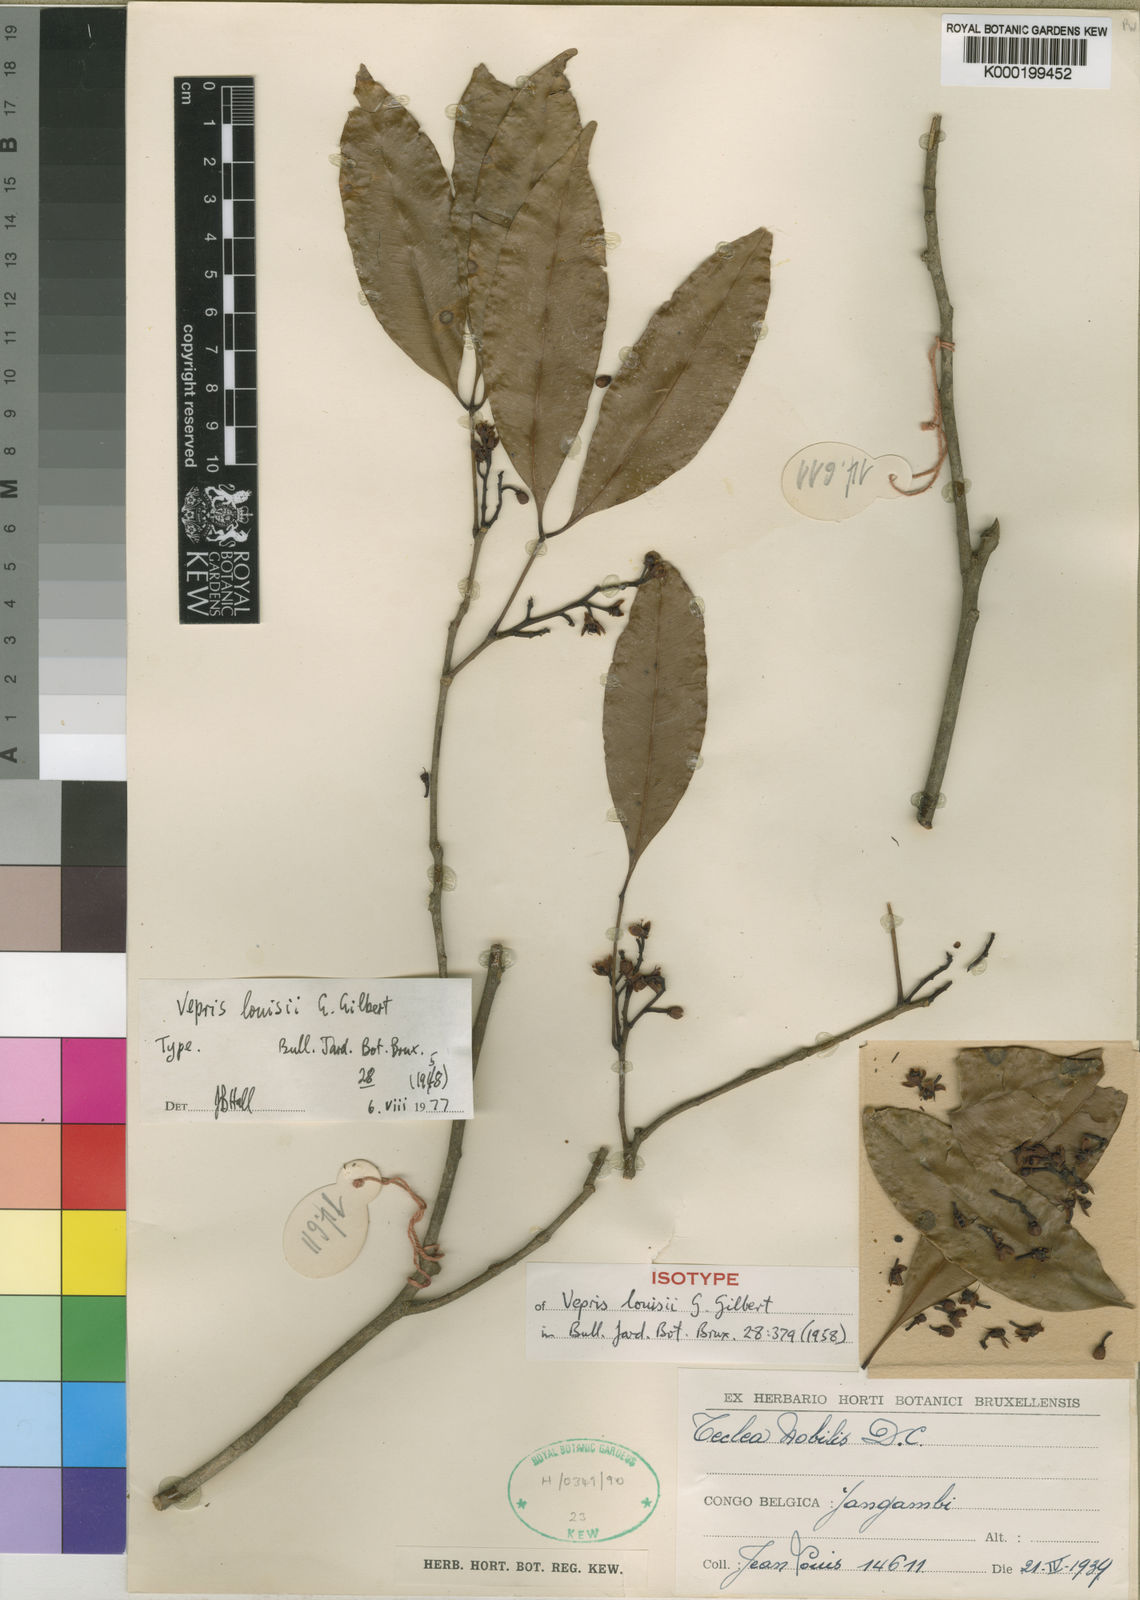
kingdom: Plantae
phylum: Tracheophyta
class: Magnoliopsida
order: Sapindales
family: Rutaceae
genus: Vepris
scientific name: Vepris louisii
